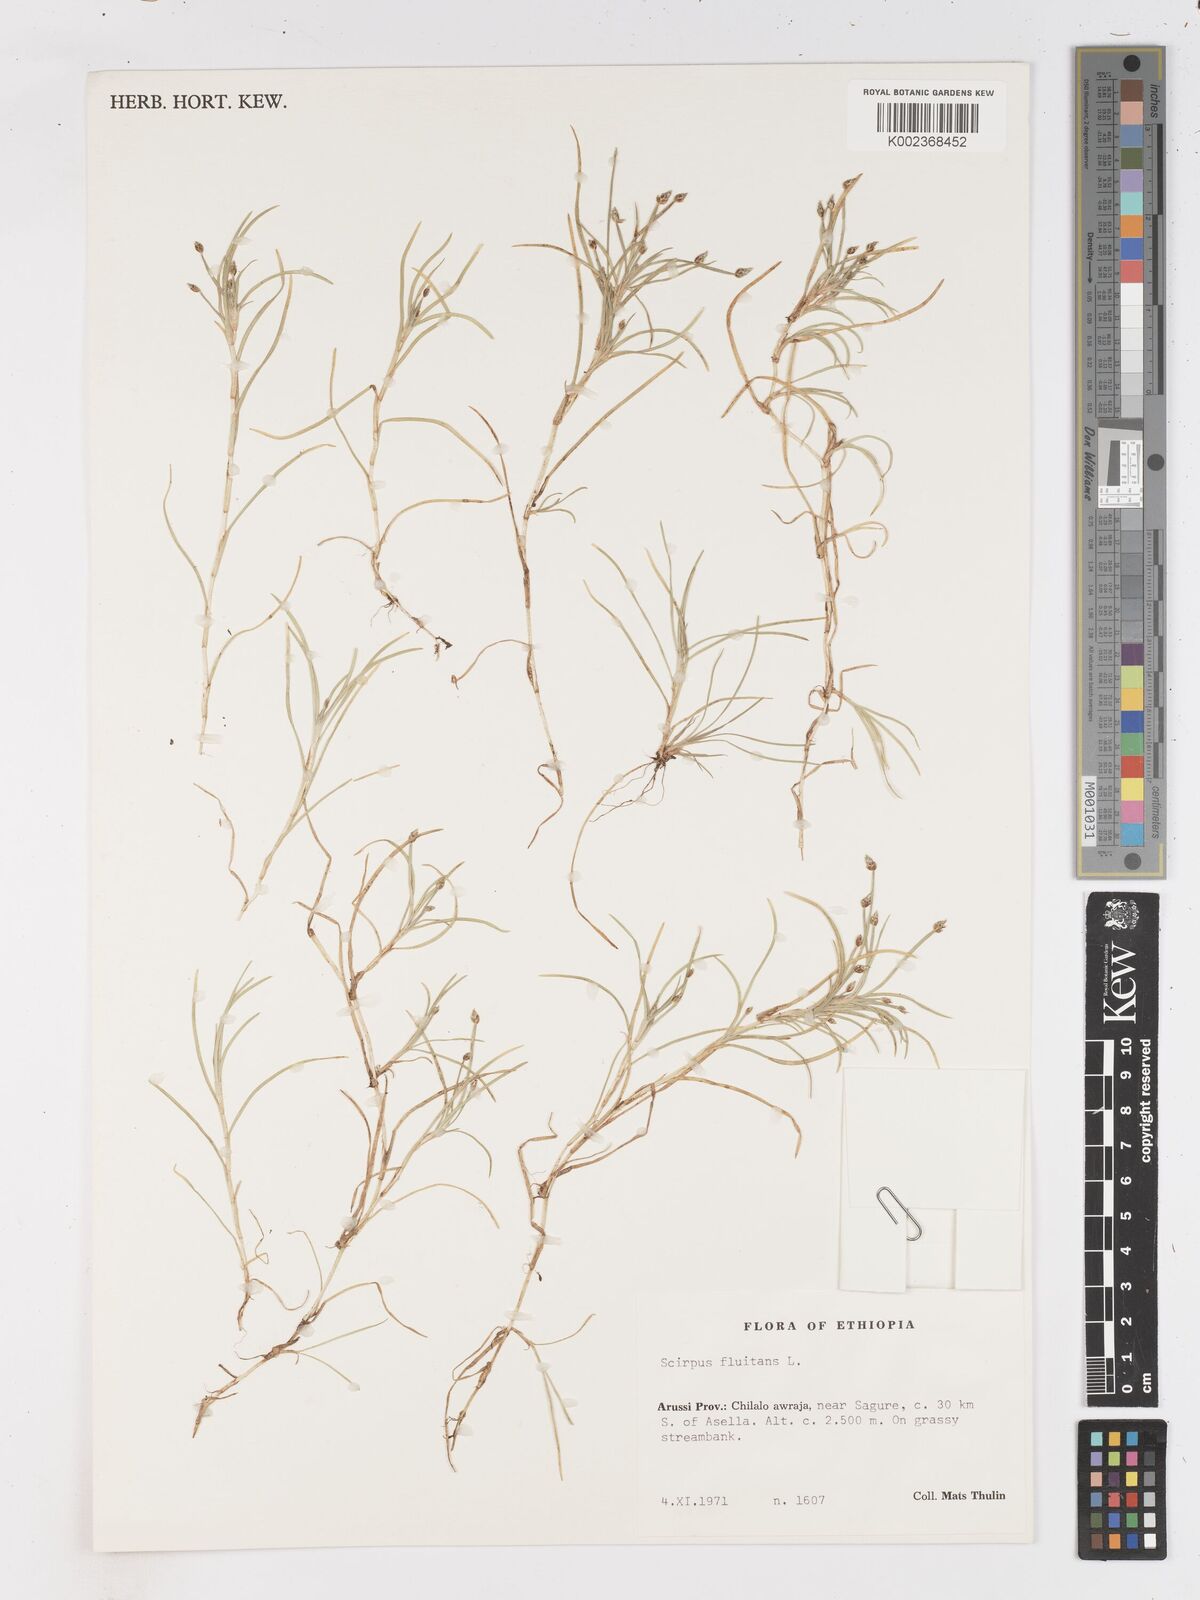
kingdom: Plantae
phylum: Tracheophyta
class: Liliopsida
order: Poales
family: Cyperaceae
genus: Isolepis
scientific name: Isolepis fluitans
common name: Floating club-rush
